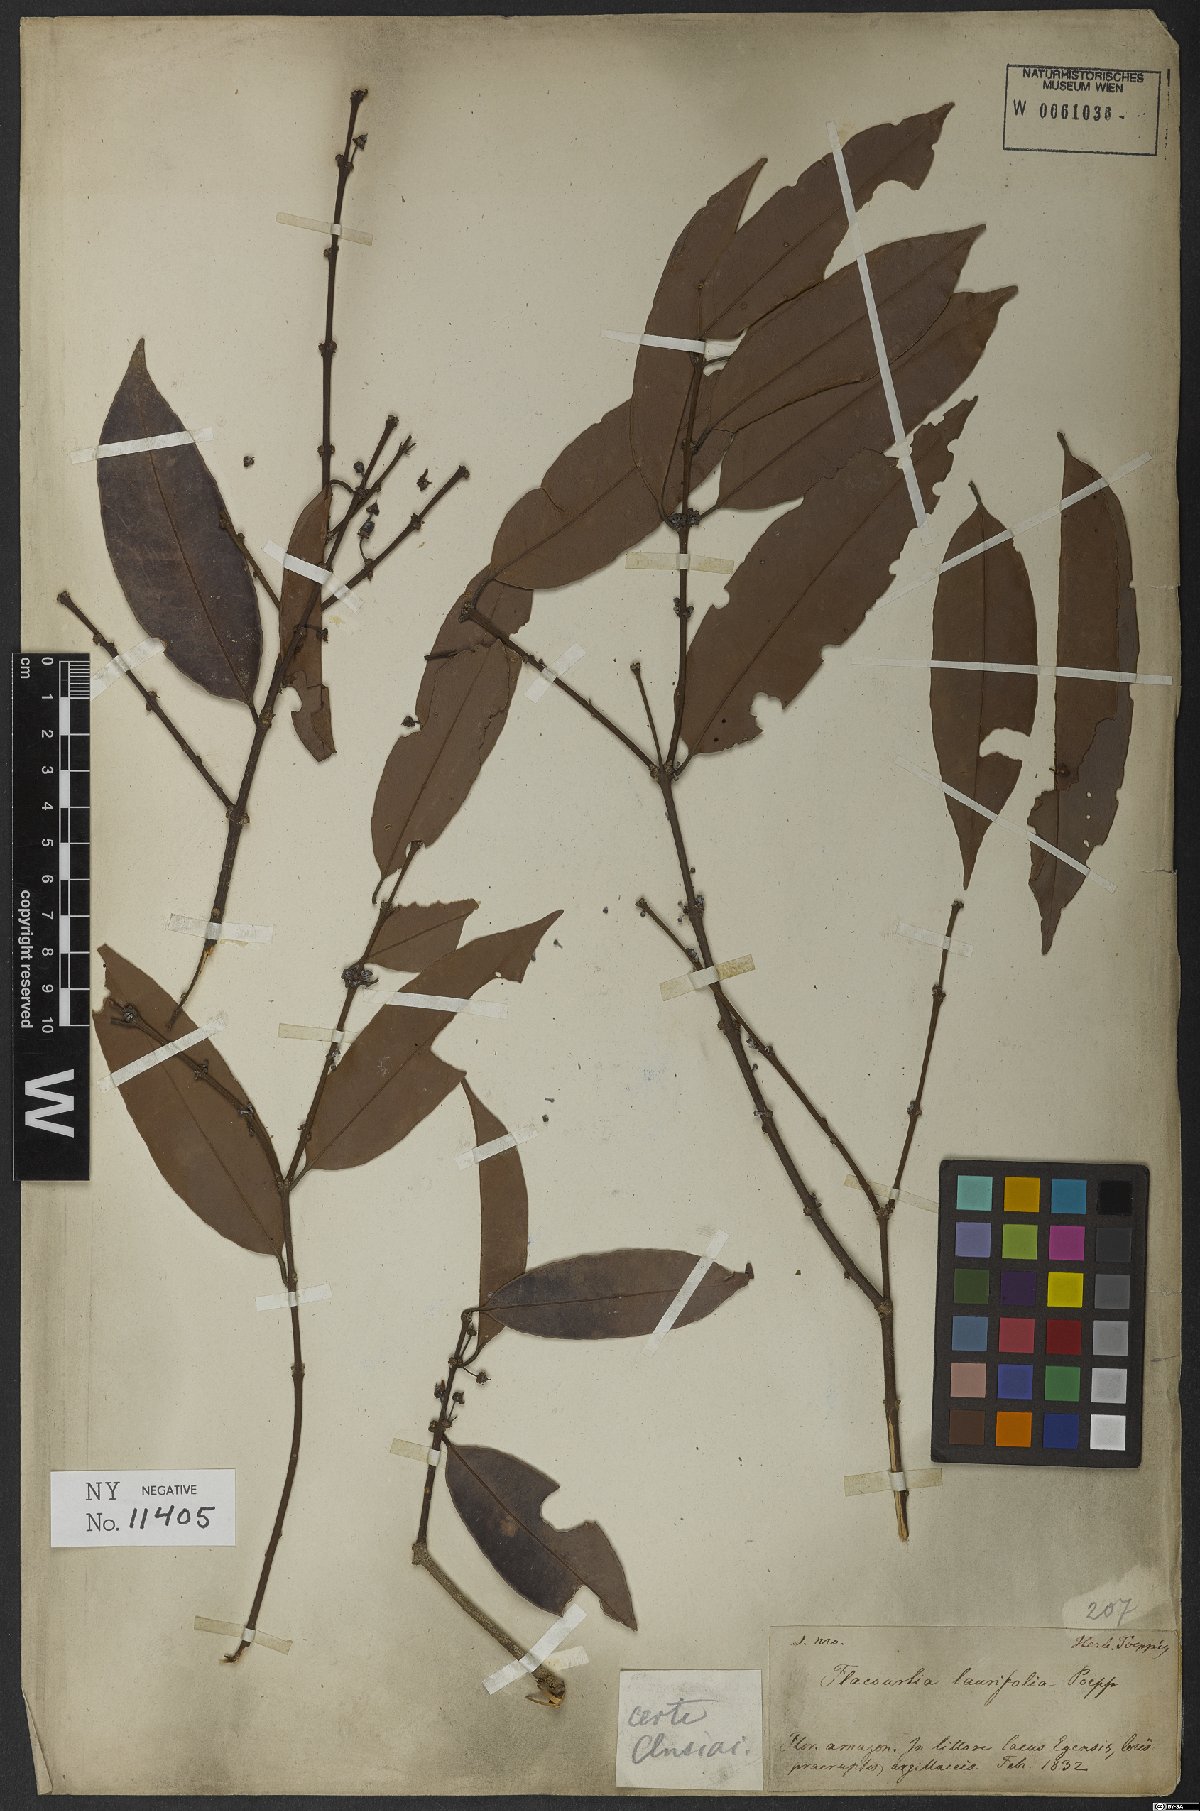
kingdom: Plantae
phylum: Tracheophyta
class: Magnoliopsida
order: Malpighiales
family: Salicaceae
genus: Flacourtia
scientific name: Flacourtia
